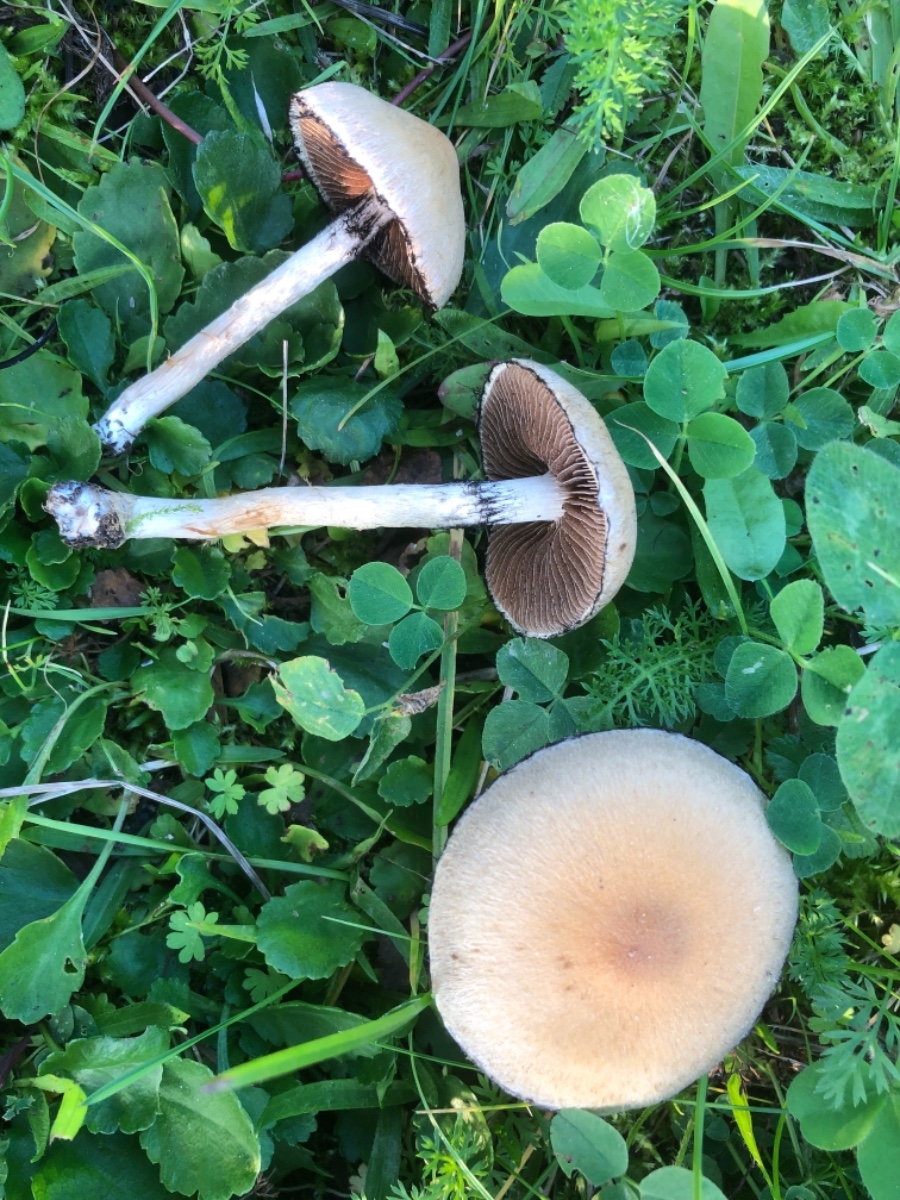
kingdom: Fungi
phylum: Basidiomycota
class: Agaricomycetes
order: Agaricales
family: Psathyrellaceae
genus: Lacrymaria
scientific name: Lacrymaria lacrymabunda
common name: grædende mørkhat
